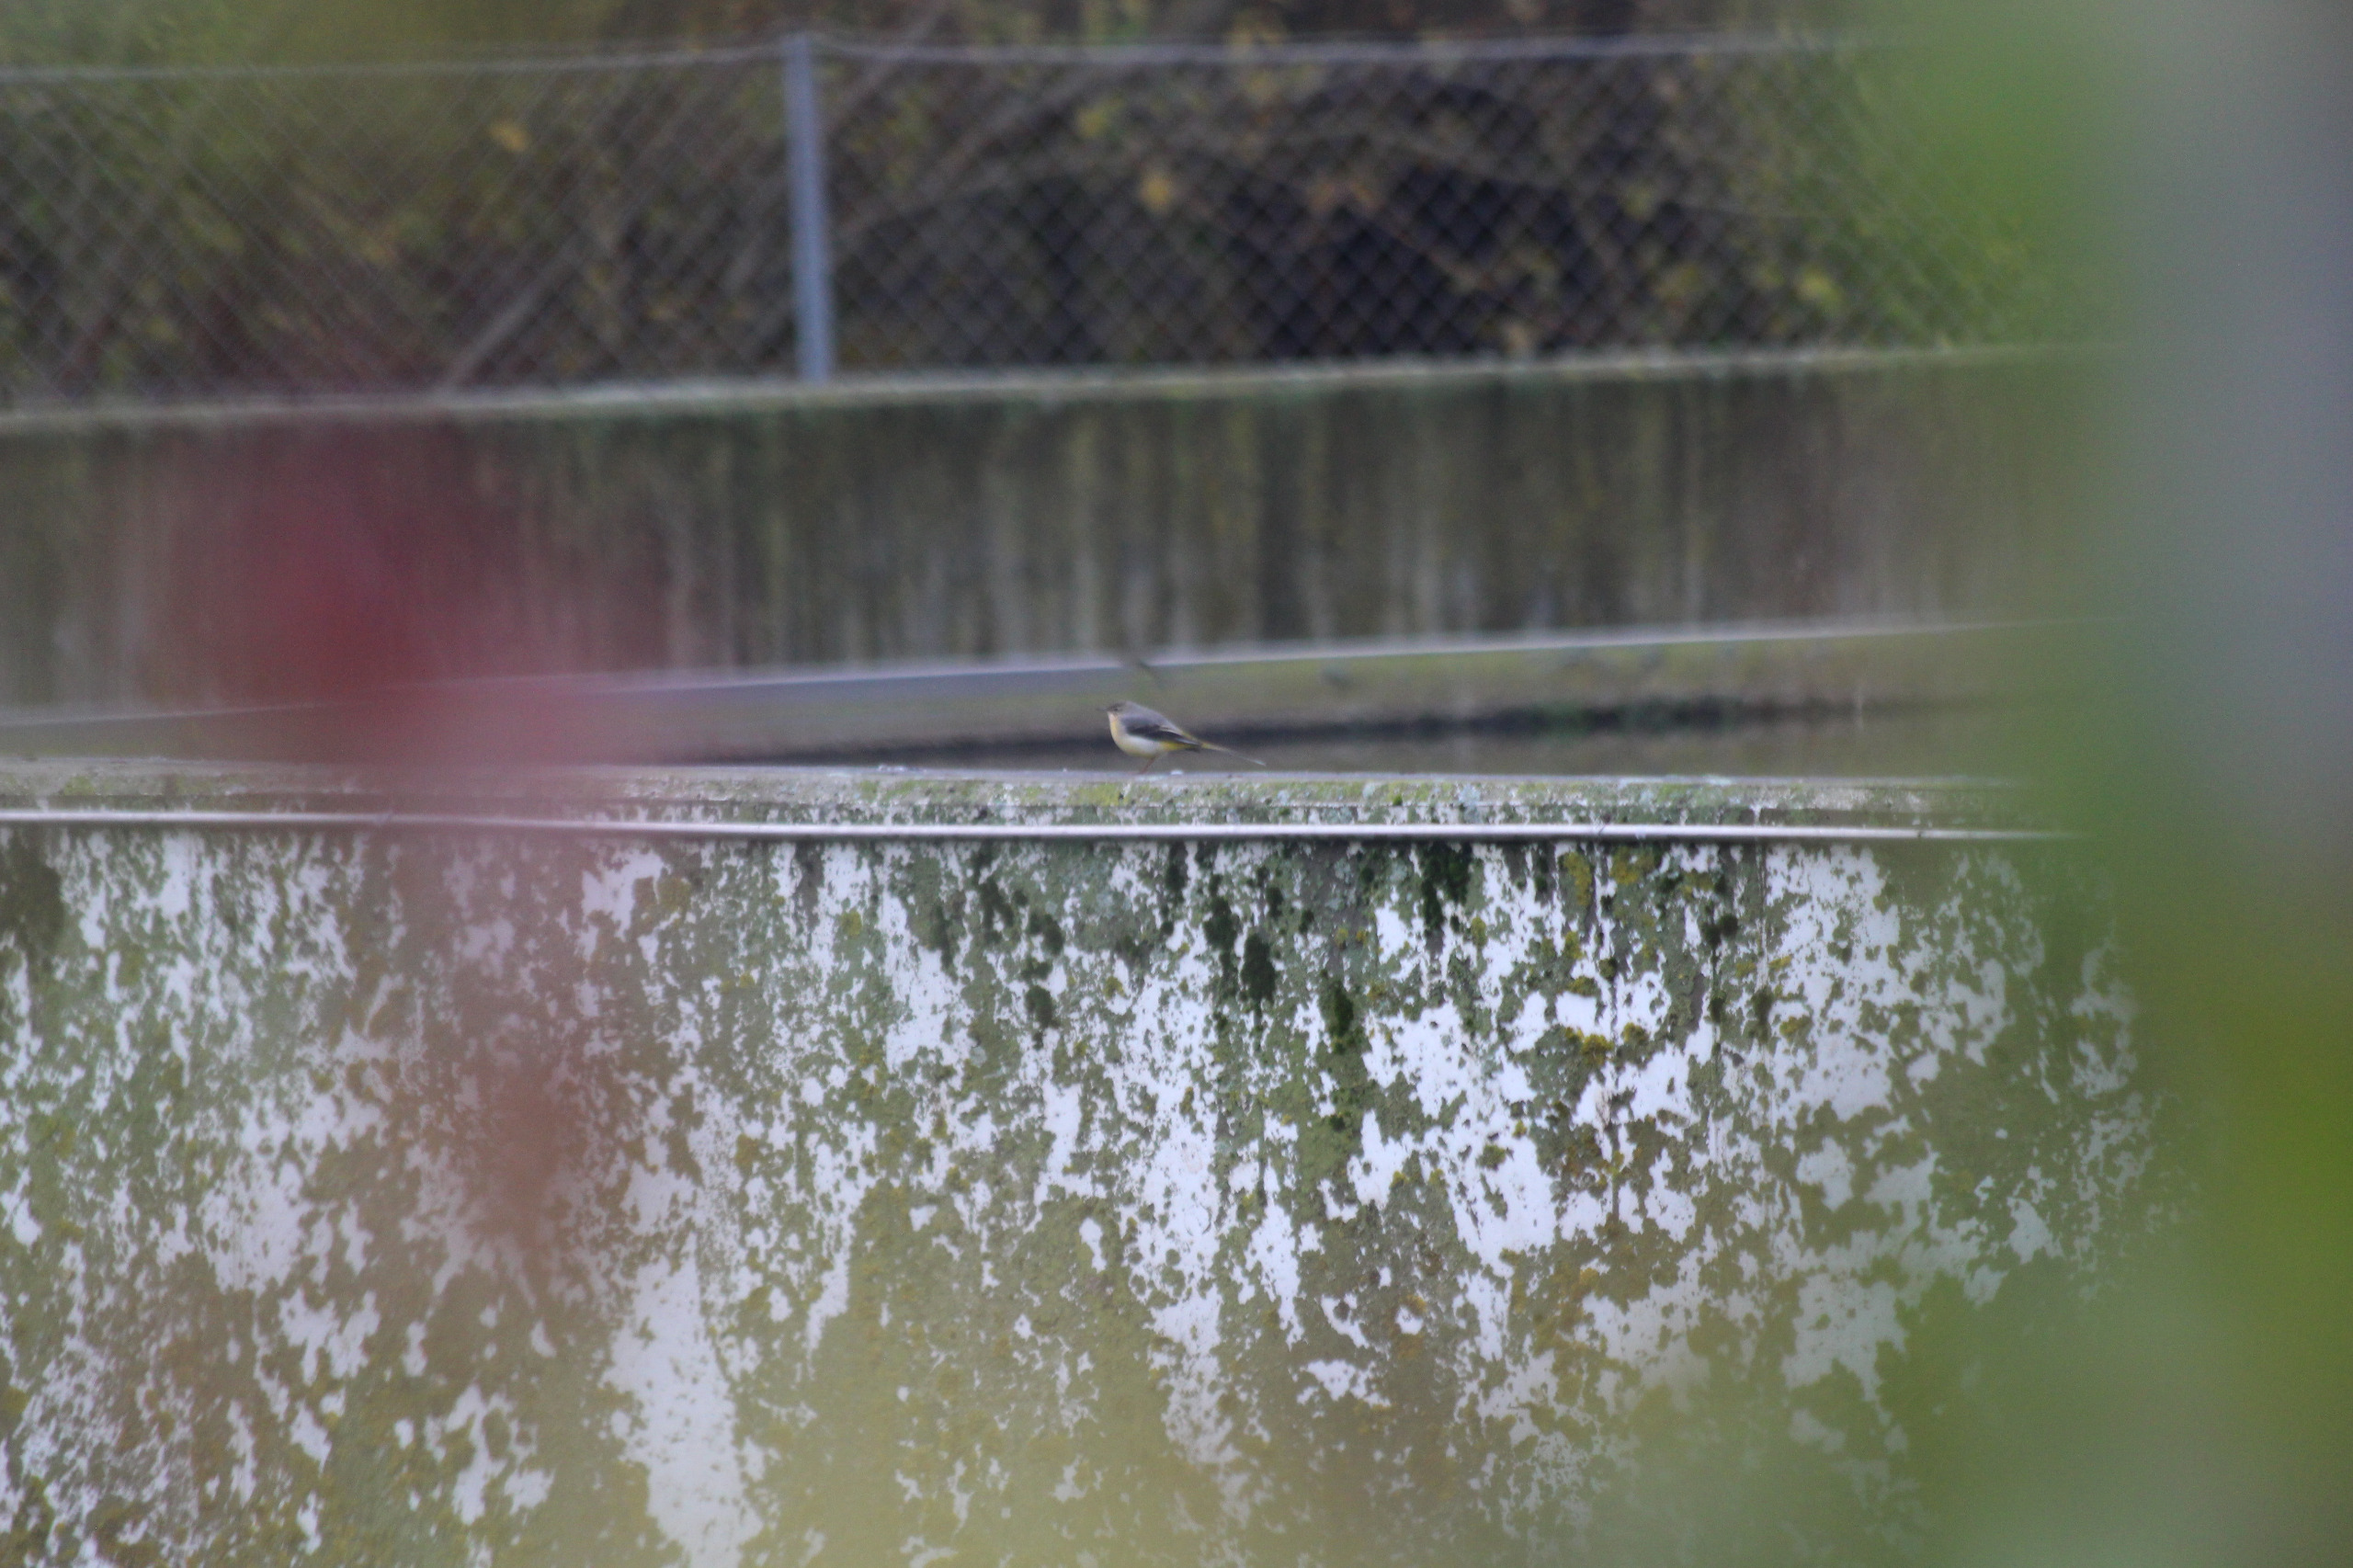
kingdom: Animalia
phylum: Chordata
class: Aves
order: Passeriformes
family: Motacillidae
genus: Motacilla
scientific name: Motacilla cinerea
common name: Bjergvipstjert
